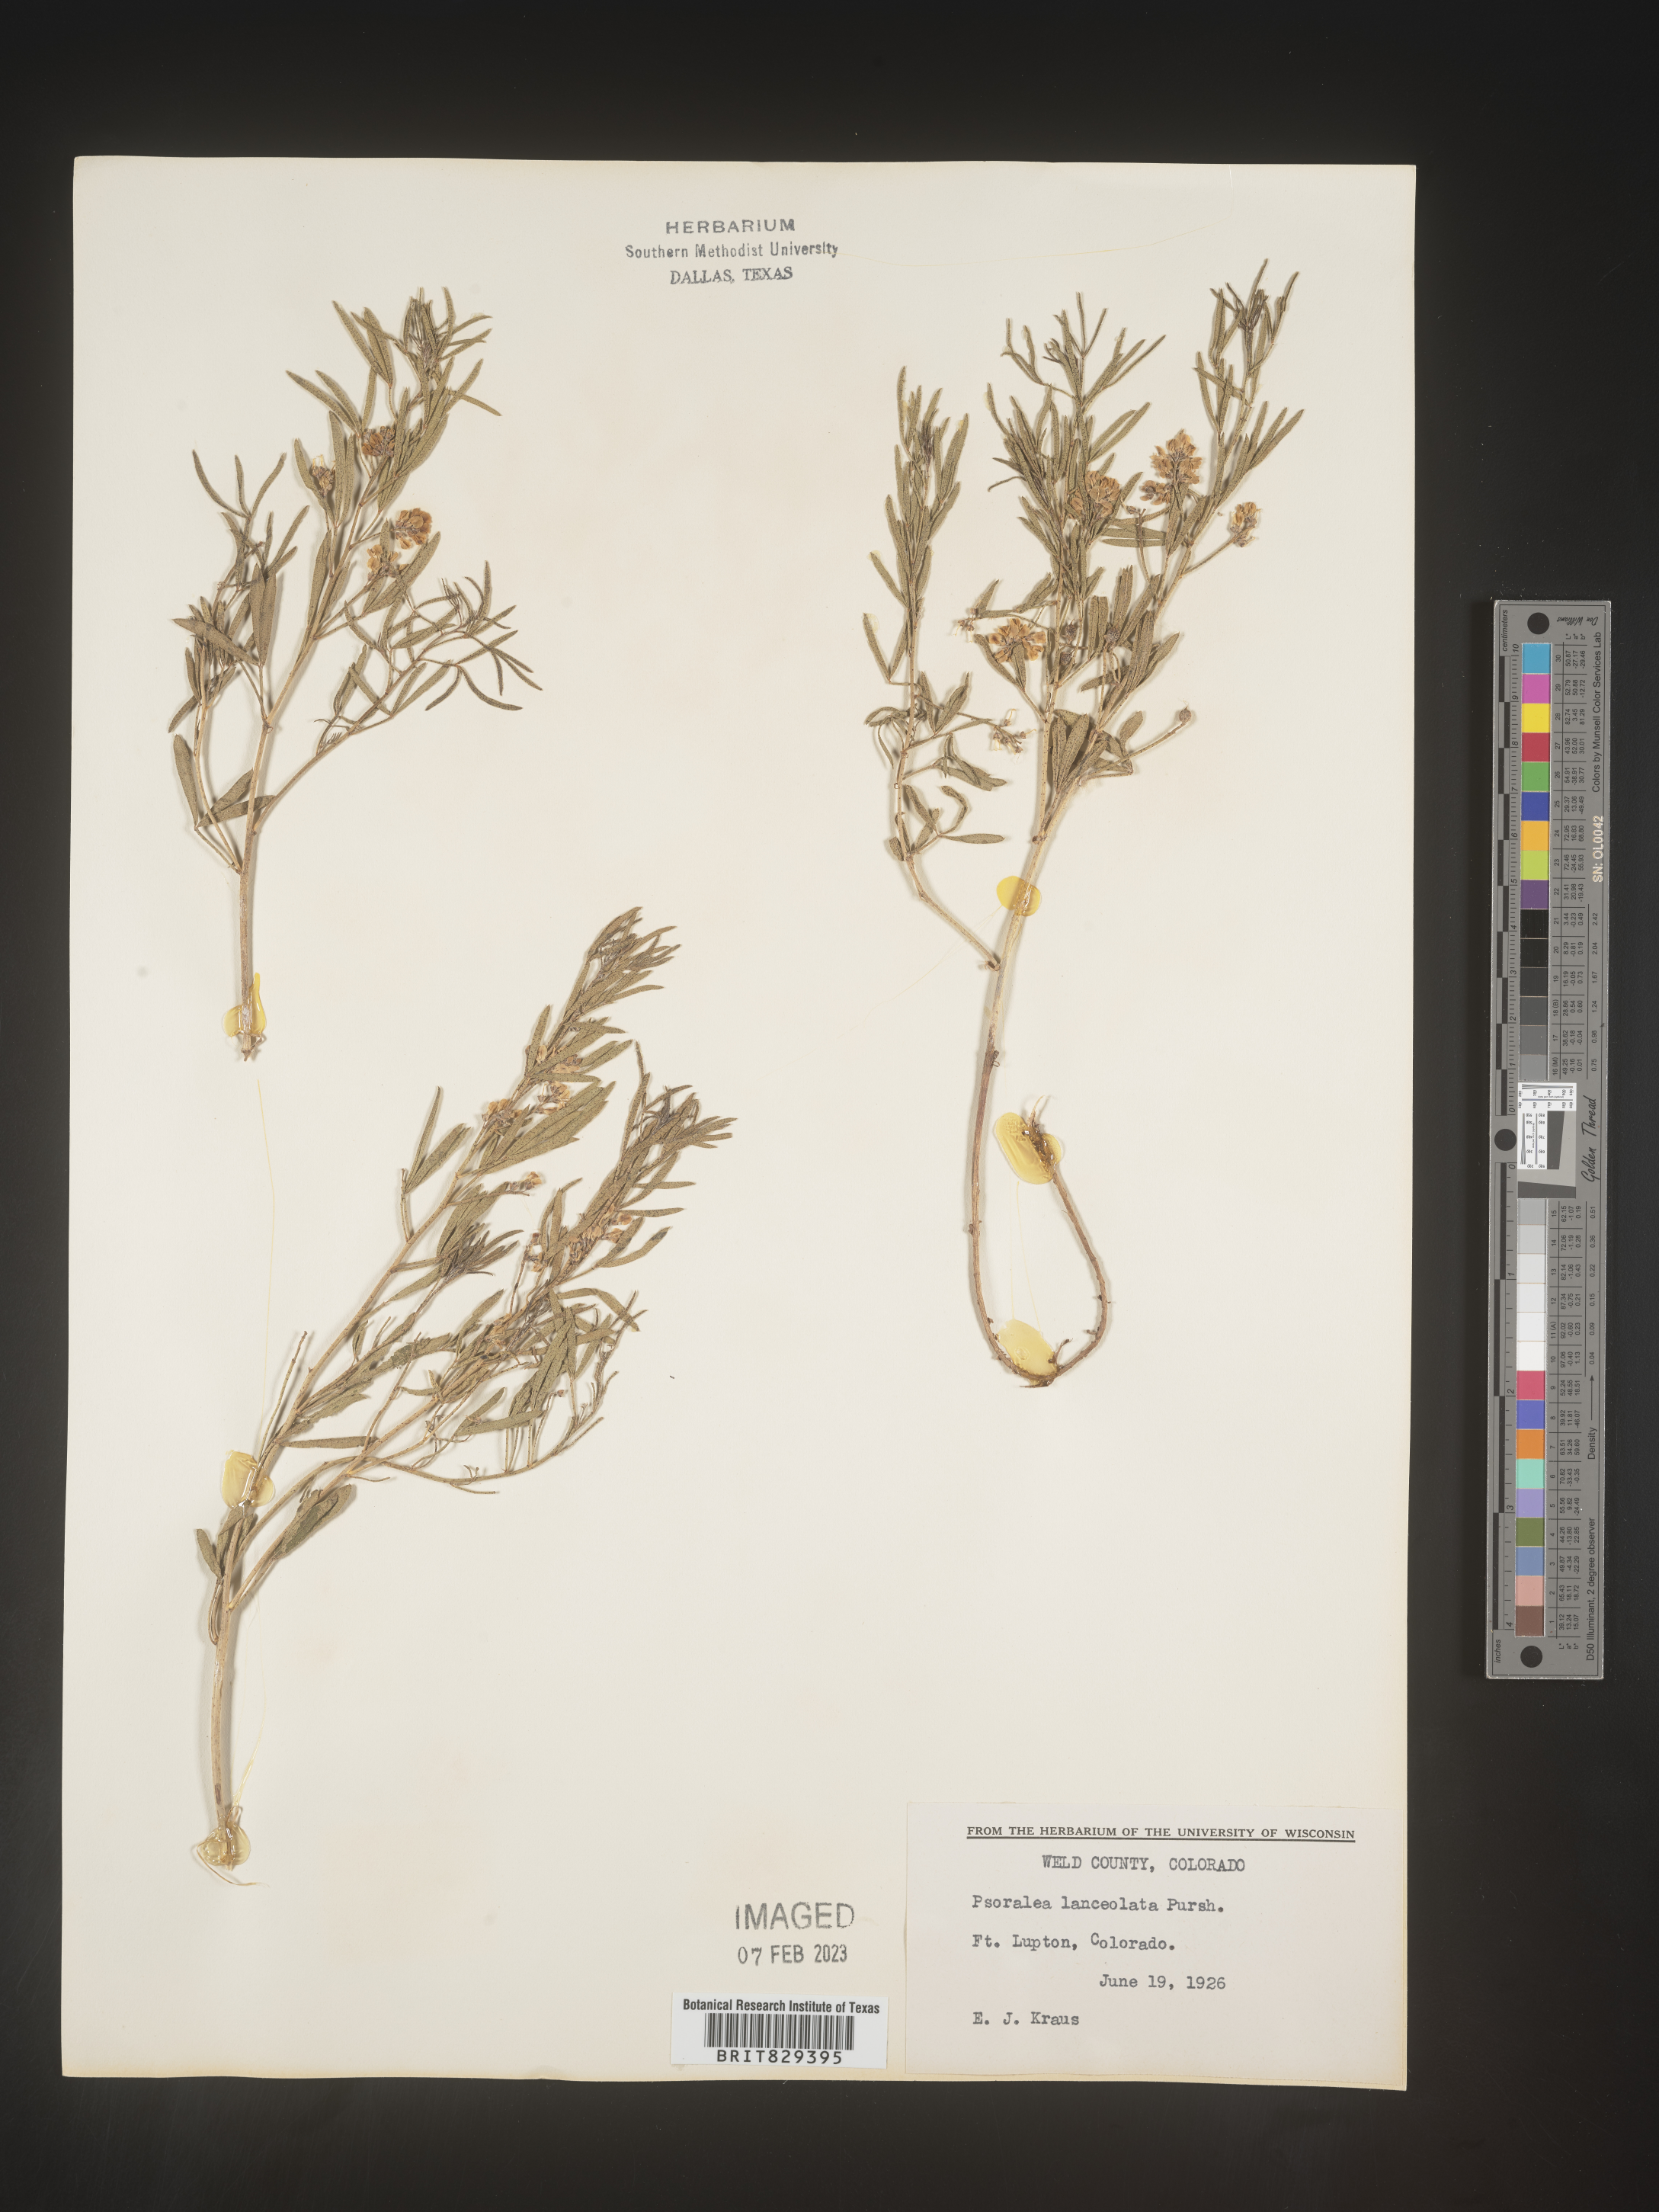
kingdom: Plantae
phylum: Tracheophyta
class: Magnoliopsida
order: Fabales
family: Fabaceae
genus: Psoralea
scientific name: Psoralea
